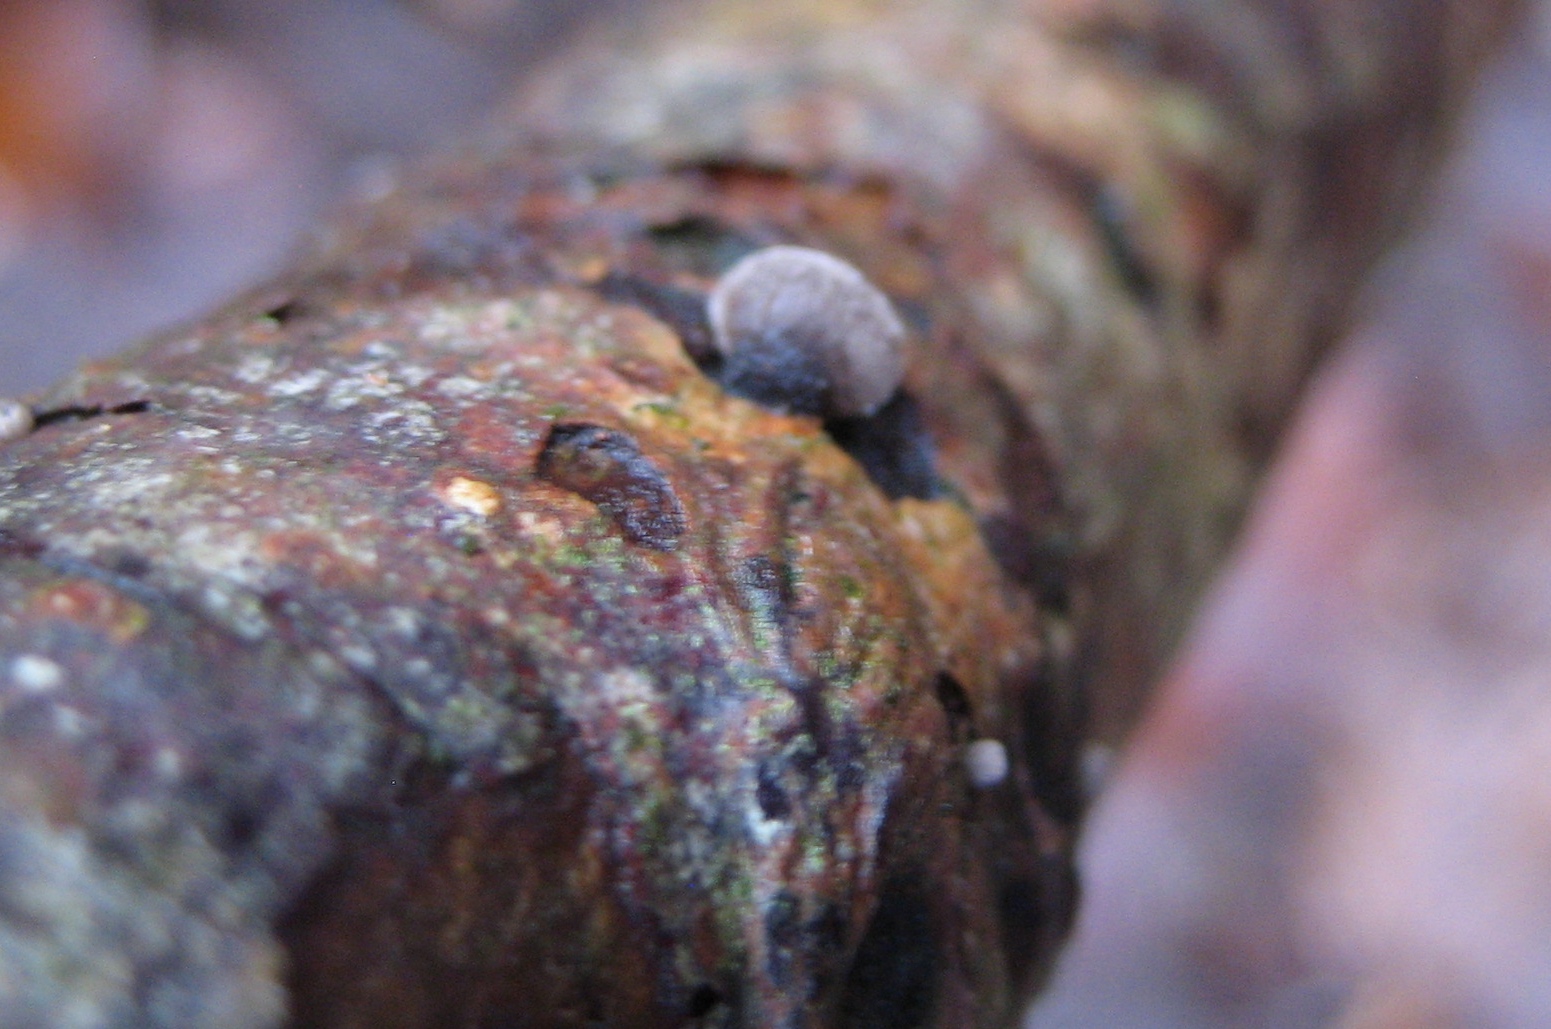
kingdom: Fungi
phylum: Basidiomycota
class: Agaricomycetes
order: Agaricales
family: Pleurotaceae
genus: Resupinatus
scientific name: Resupinatus
